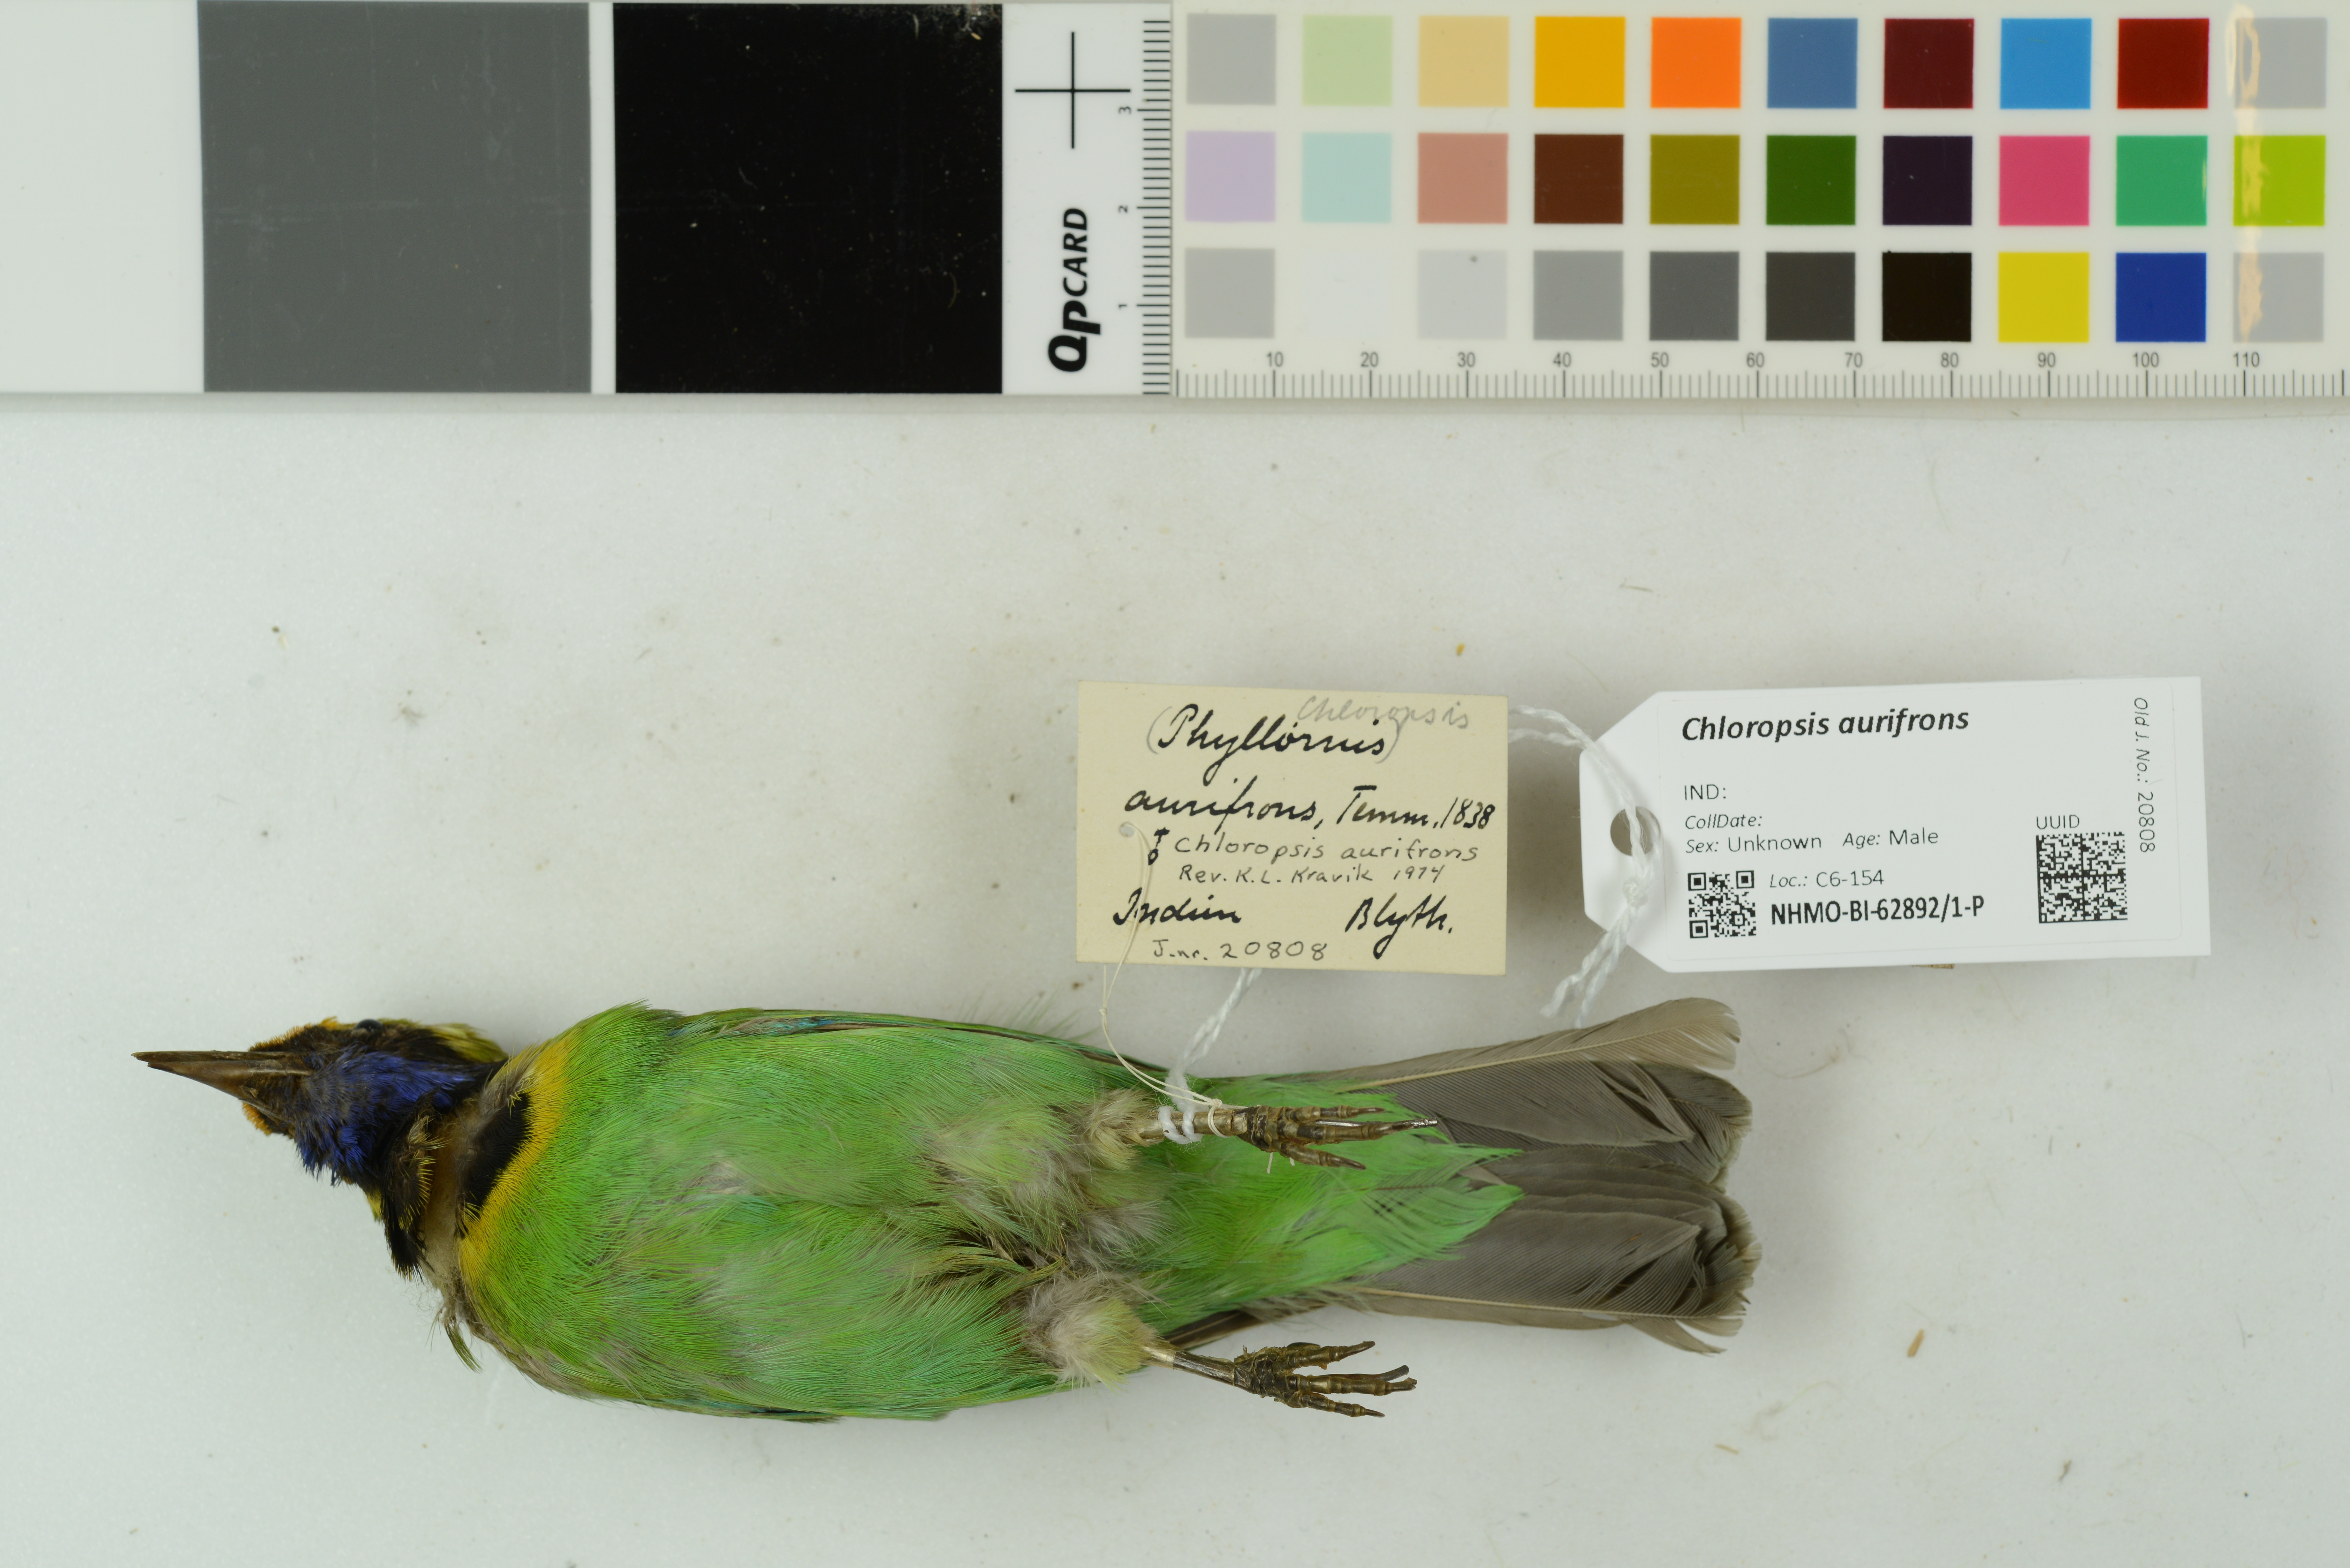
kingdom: Animalia
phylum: Chordata
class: Aves
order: Passeriformes
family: Chloropseidae
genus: Chloropsis
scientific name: Chloropsis aurifrons
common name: Golden-fronted leafbird
